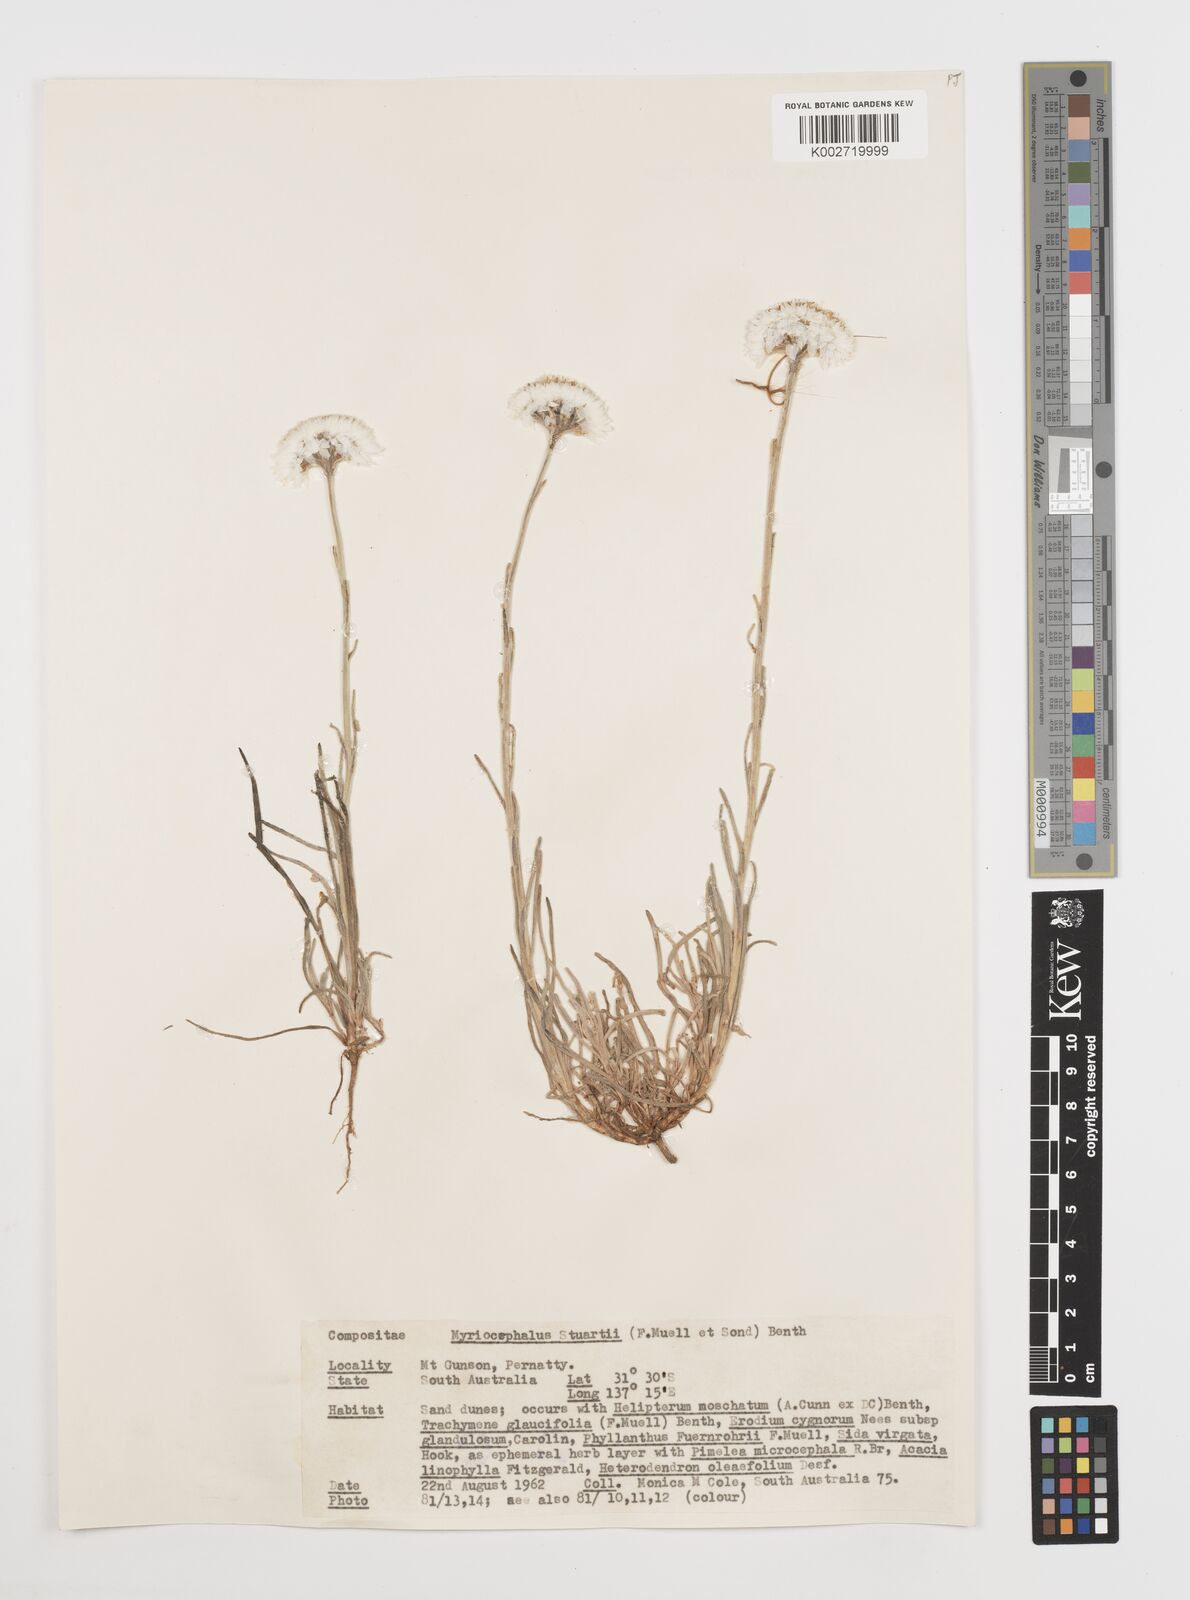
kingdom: Plantae
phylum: Tracheophyta
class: Magnoliopsida
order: Asterales
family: Asteraceae
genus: Polycalymma
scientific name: Polycalymma stuartii
